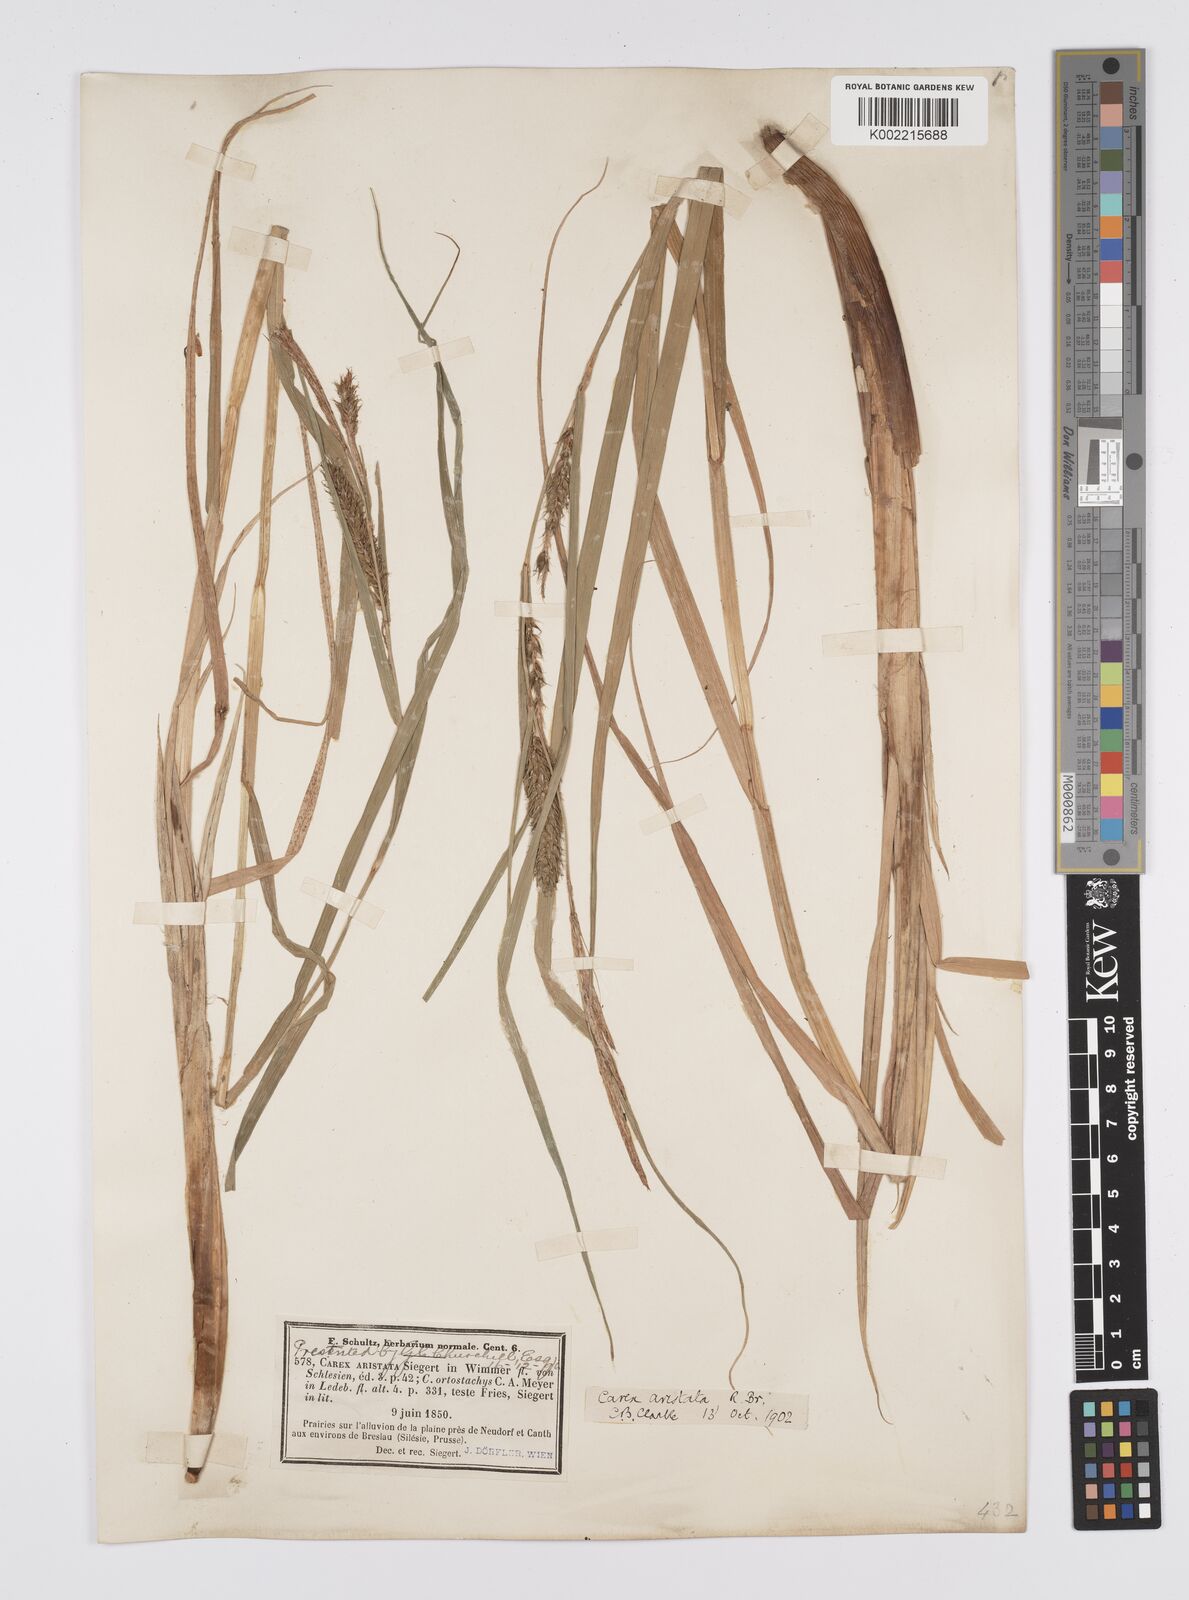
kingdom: Plantae
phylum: Tracheophyta
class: Liliopsida
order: Poales
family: Cyperaceae
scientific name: Cyperaceae
